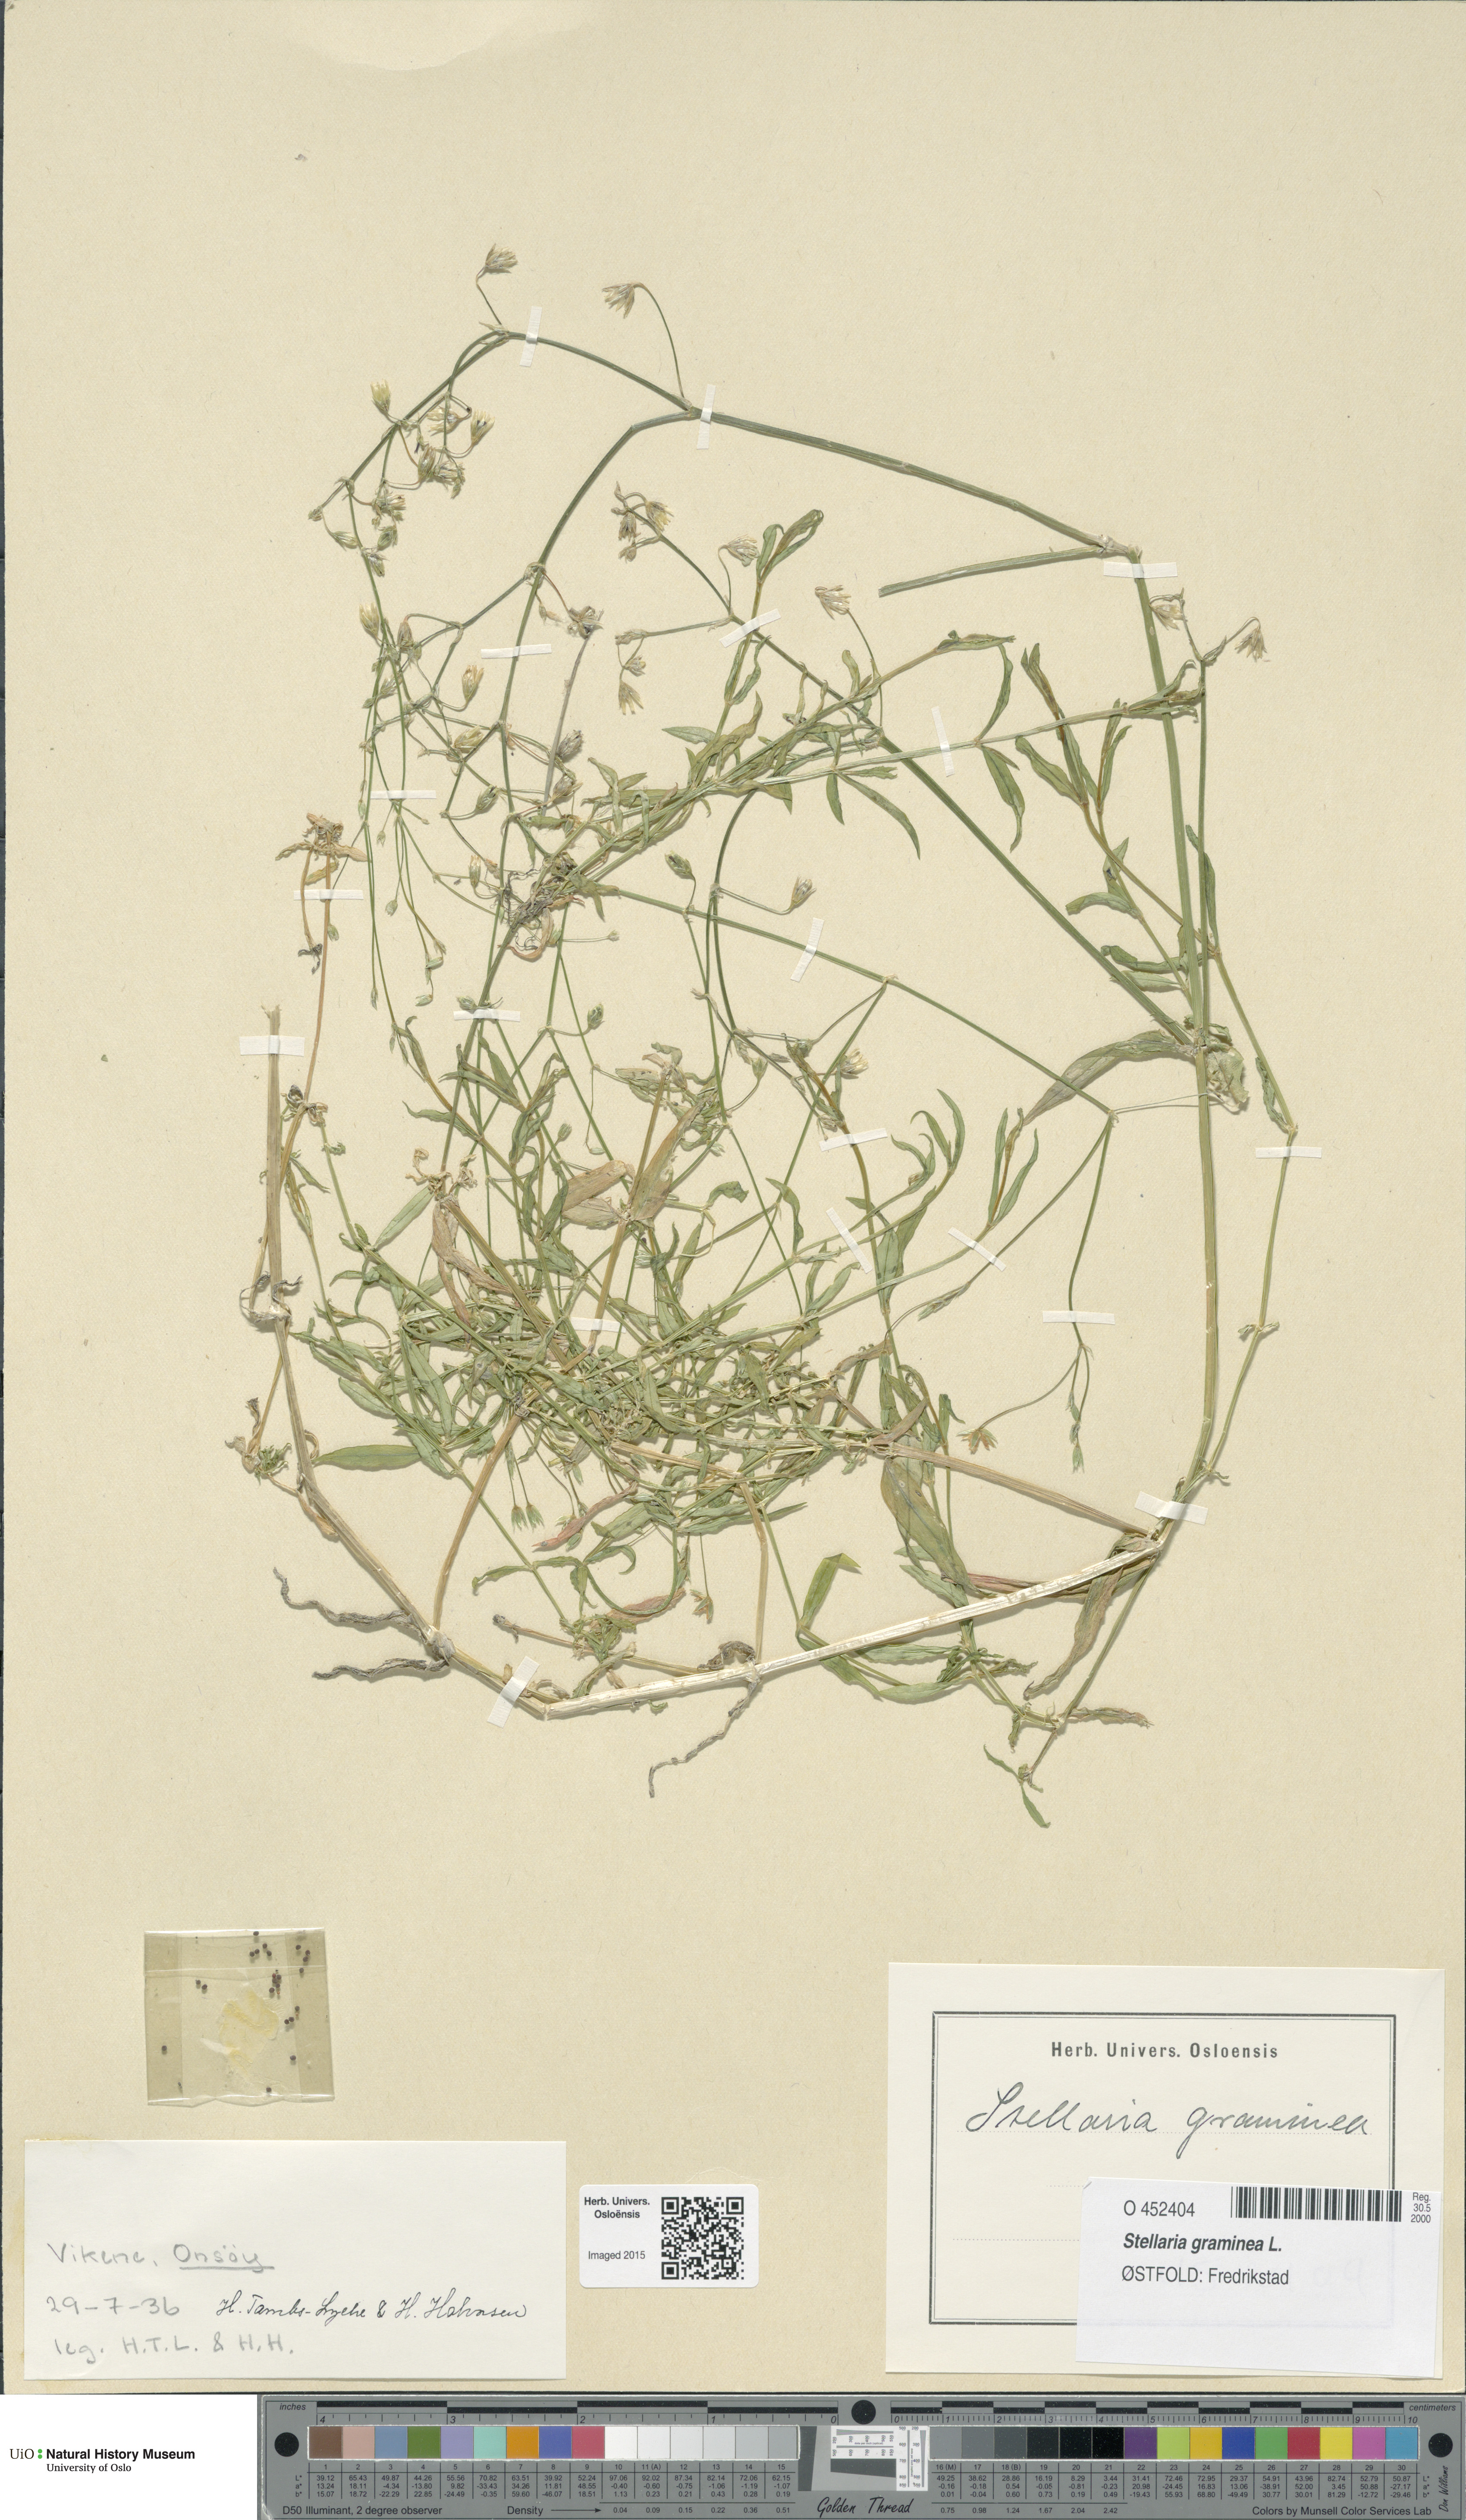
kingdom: Plantae
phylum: Tracheophyta
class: Magnoliopsida
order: Caryophyllales
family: Caryophyllaceae
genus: Stellaria
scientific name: Stellaria graminea
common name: Grass-like starwort
